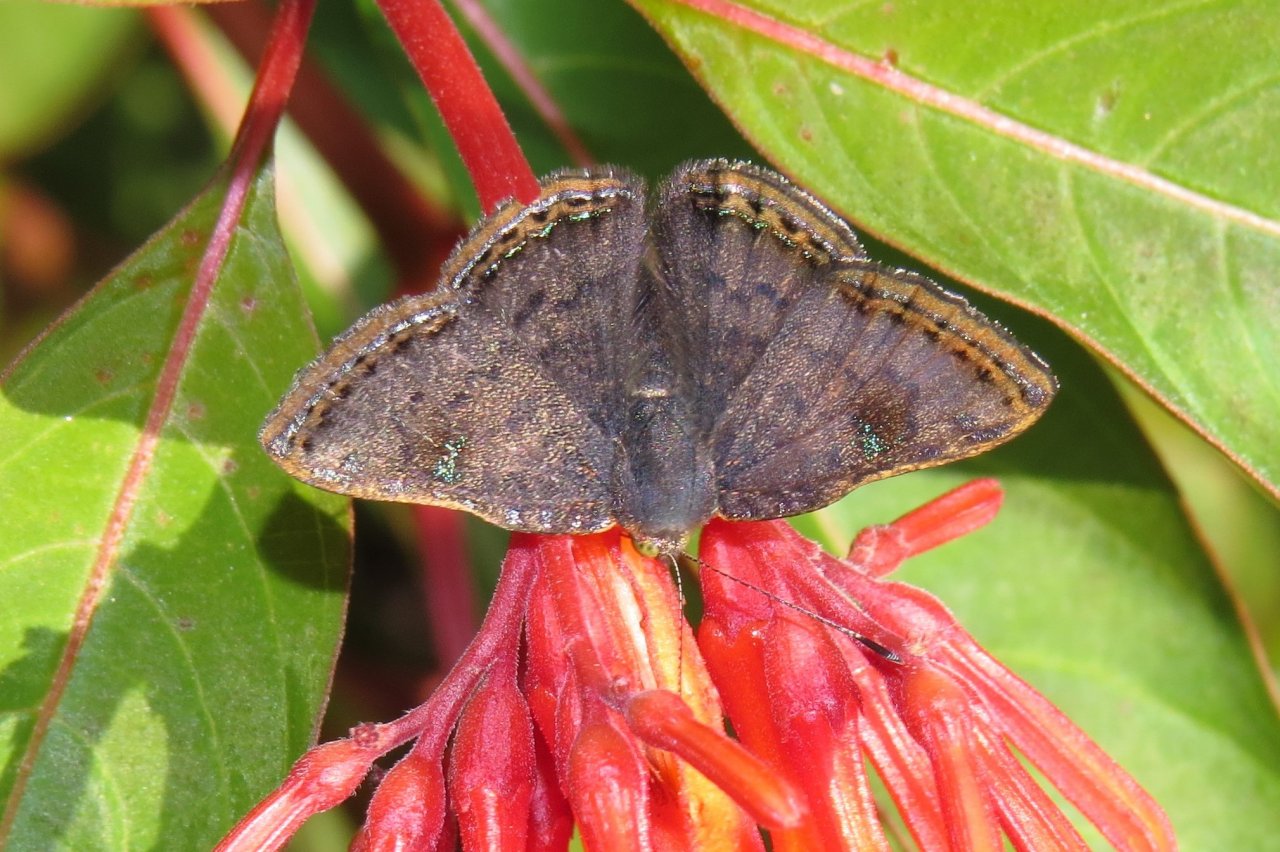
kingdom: Animalia
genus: Caria
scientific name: Caria ino
